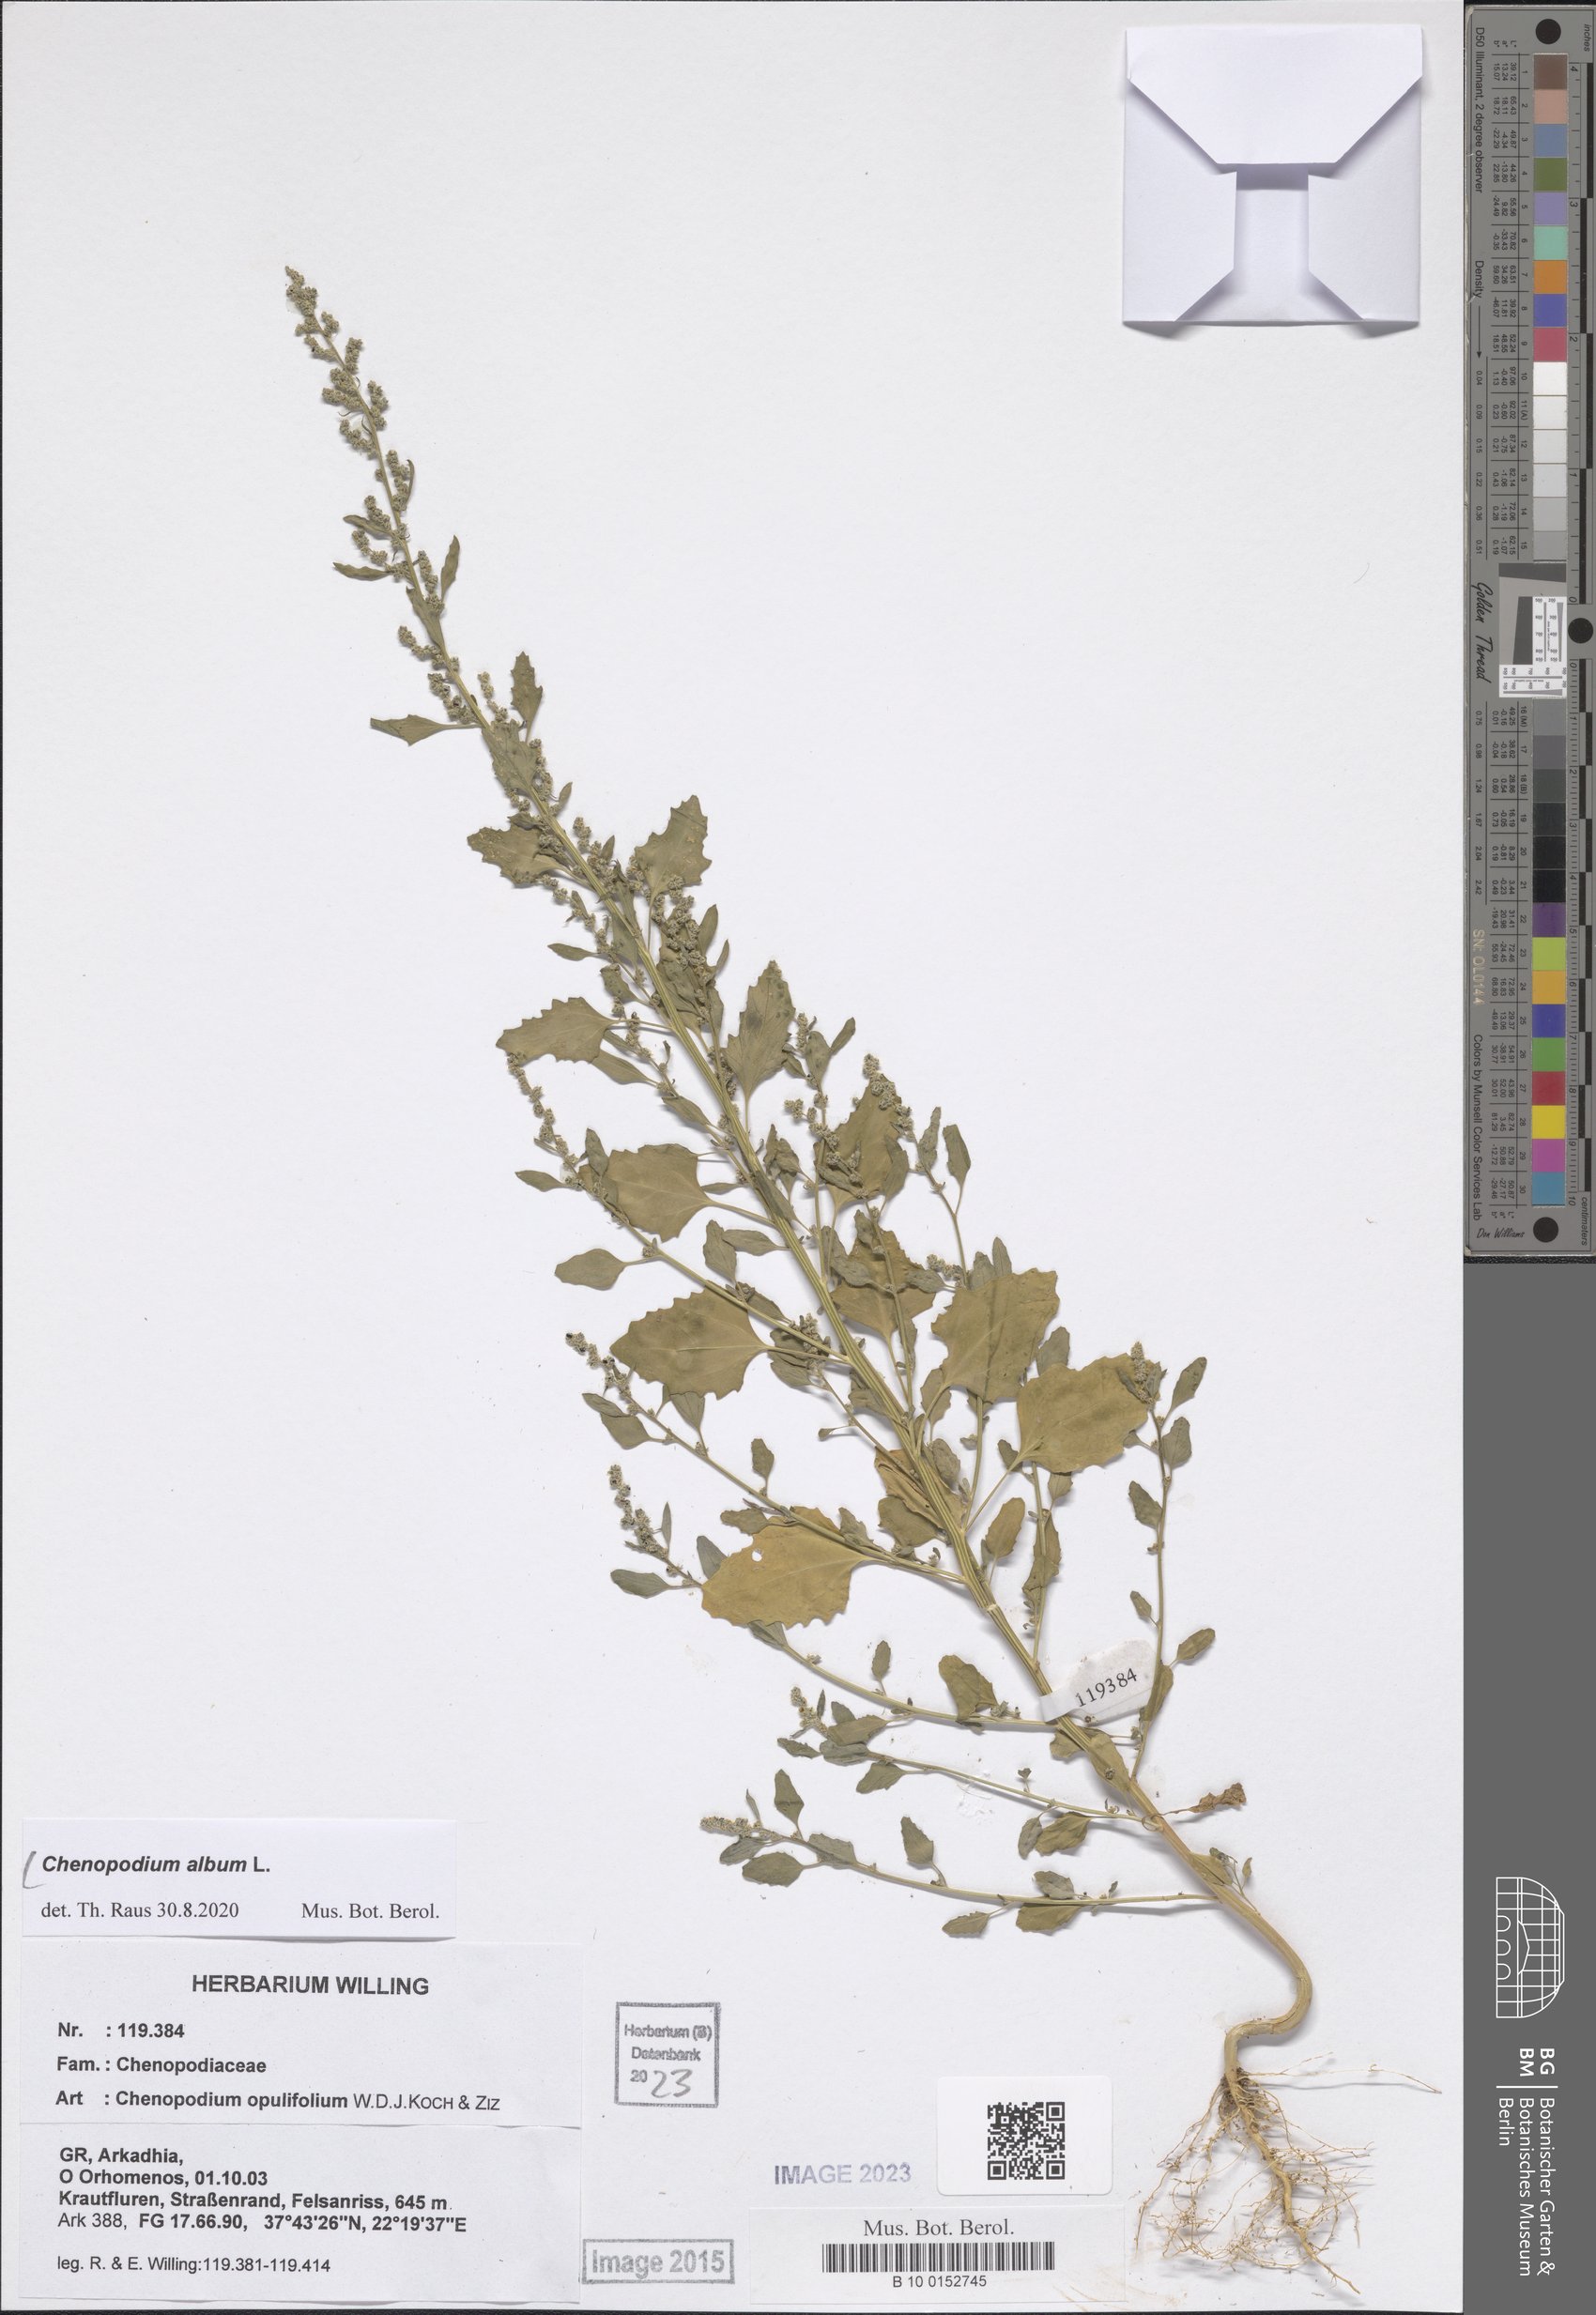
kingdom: Plantae
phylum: Tracheophyta
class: Magnoliopsida
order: Caryophyllales
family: Amaranthaceae
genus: Chenopodium
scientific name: Chenopodium album
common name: Fat-hen
